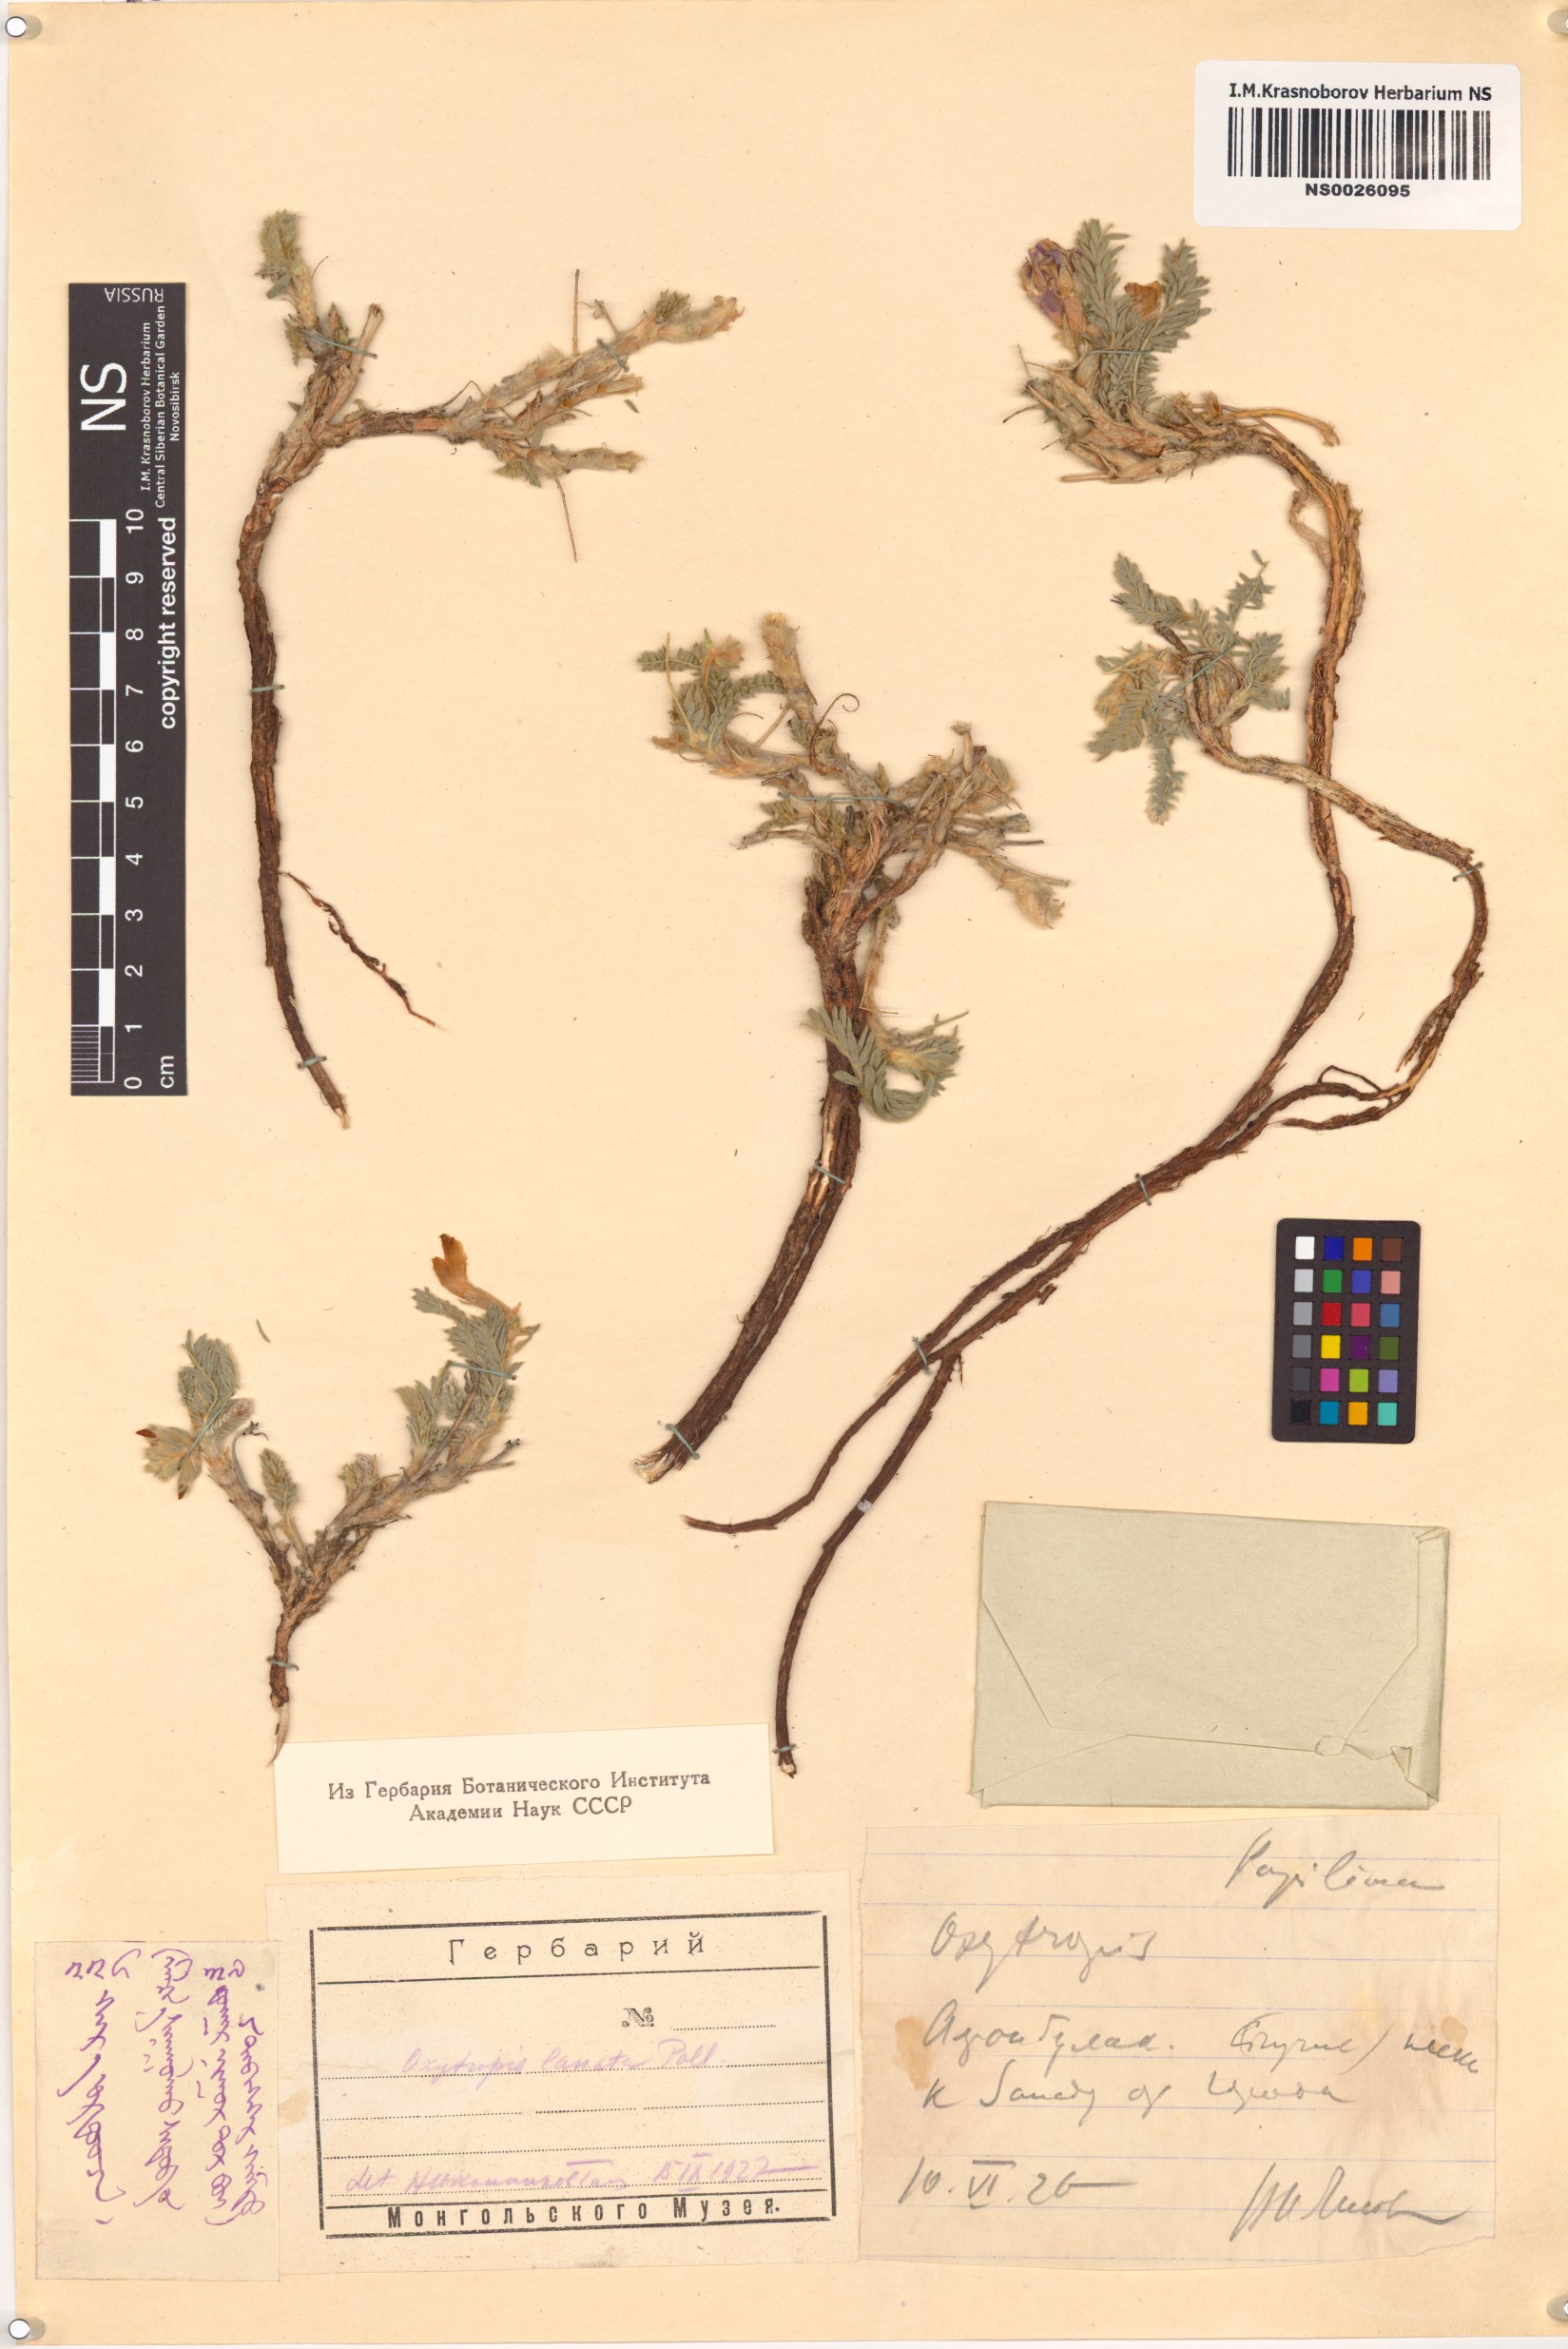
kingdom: Plantae
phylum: Tracheophyta
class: Magnoliopsida
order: Fabales
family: Fabaceae
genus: Oxytropis
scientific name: Oxytropis lanata
